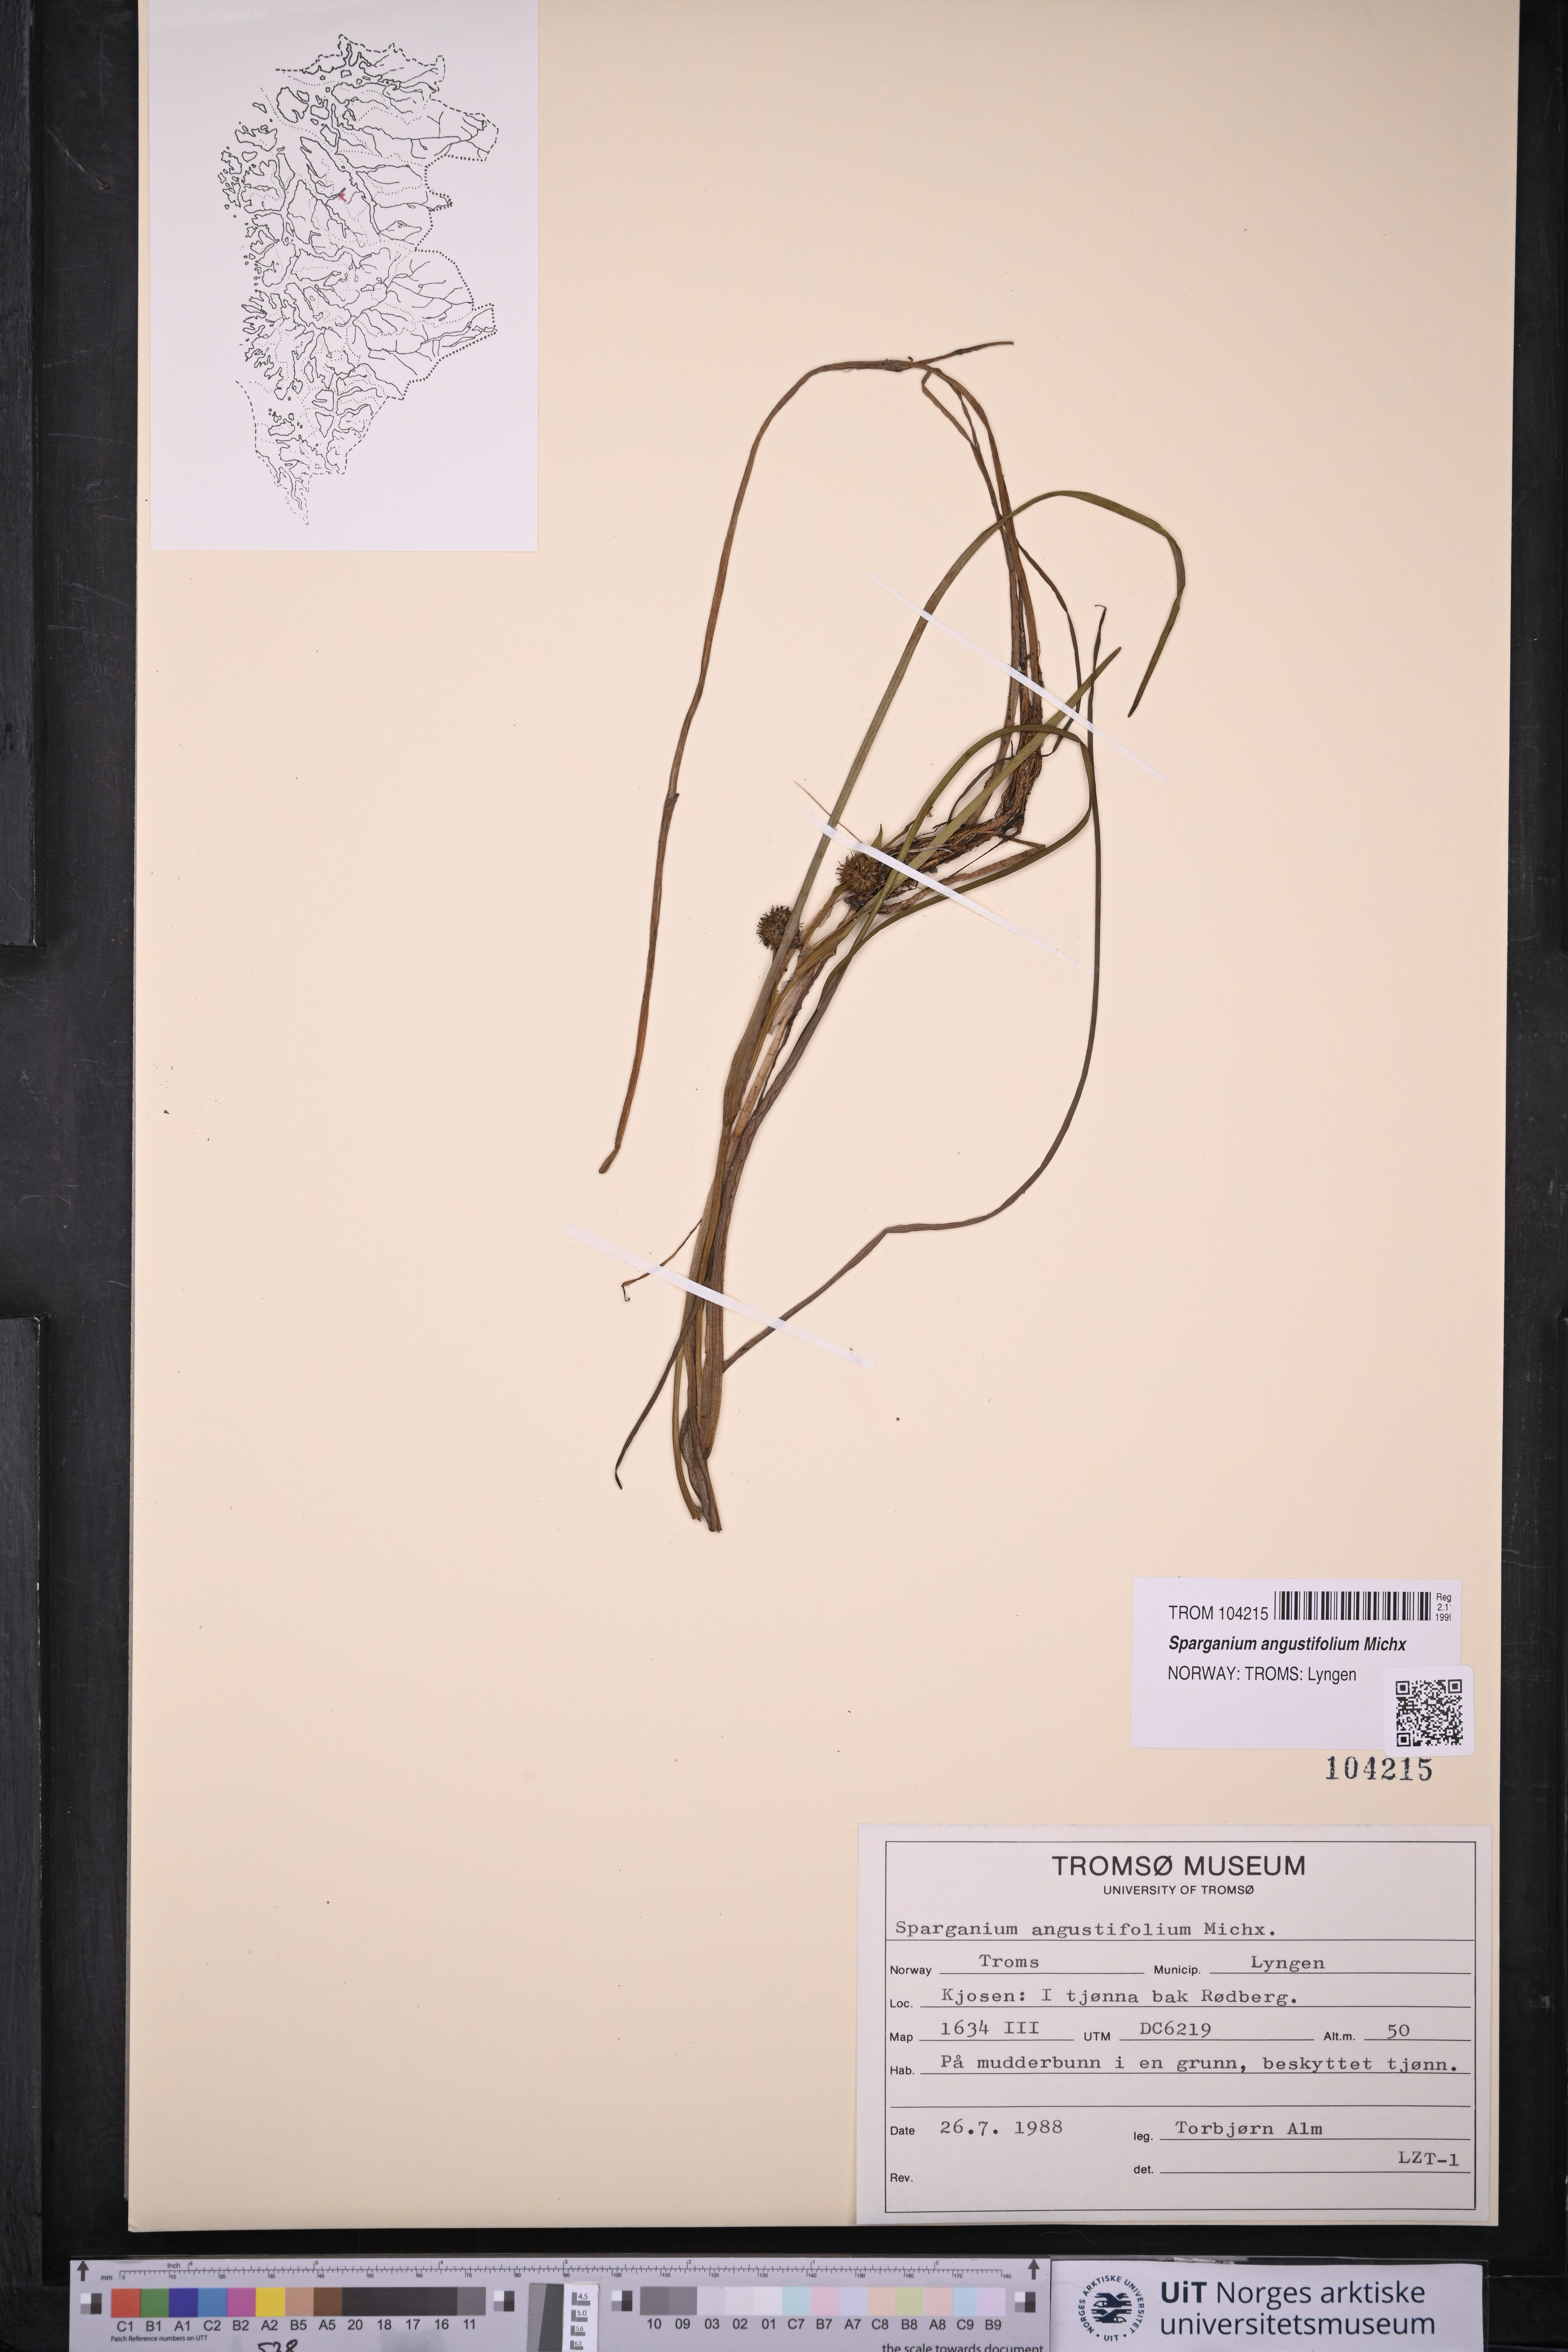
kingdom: Plantae
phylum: Tracheophyta
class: Liliopsida
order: Poales
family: Typhaceae
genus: Sparganium
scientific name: Sparganium angustifolium
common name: Floating bur-reed
